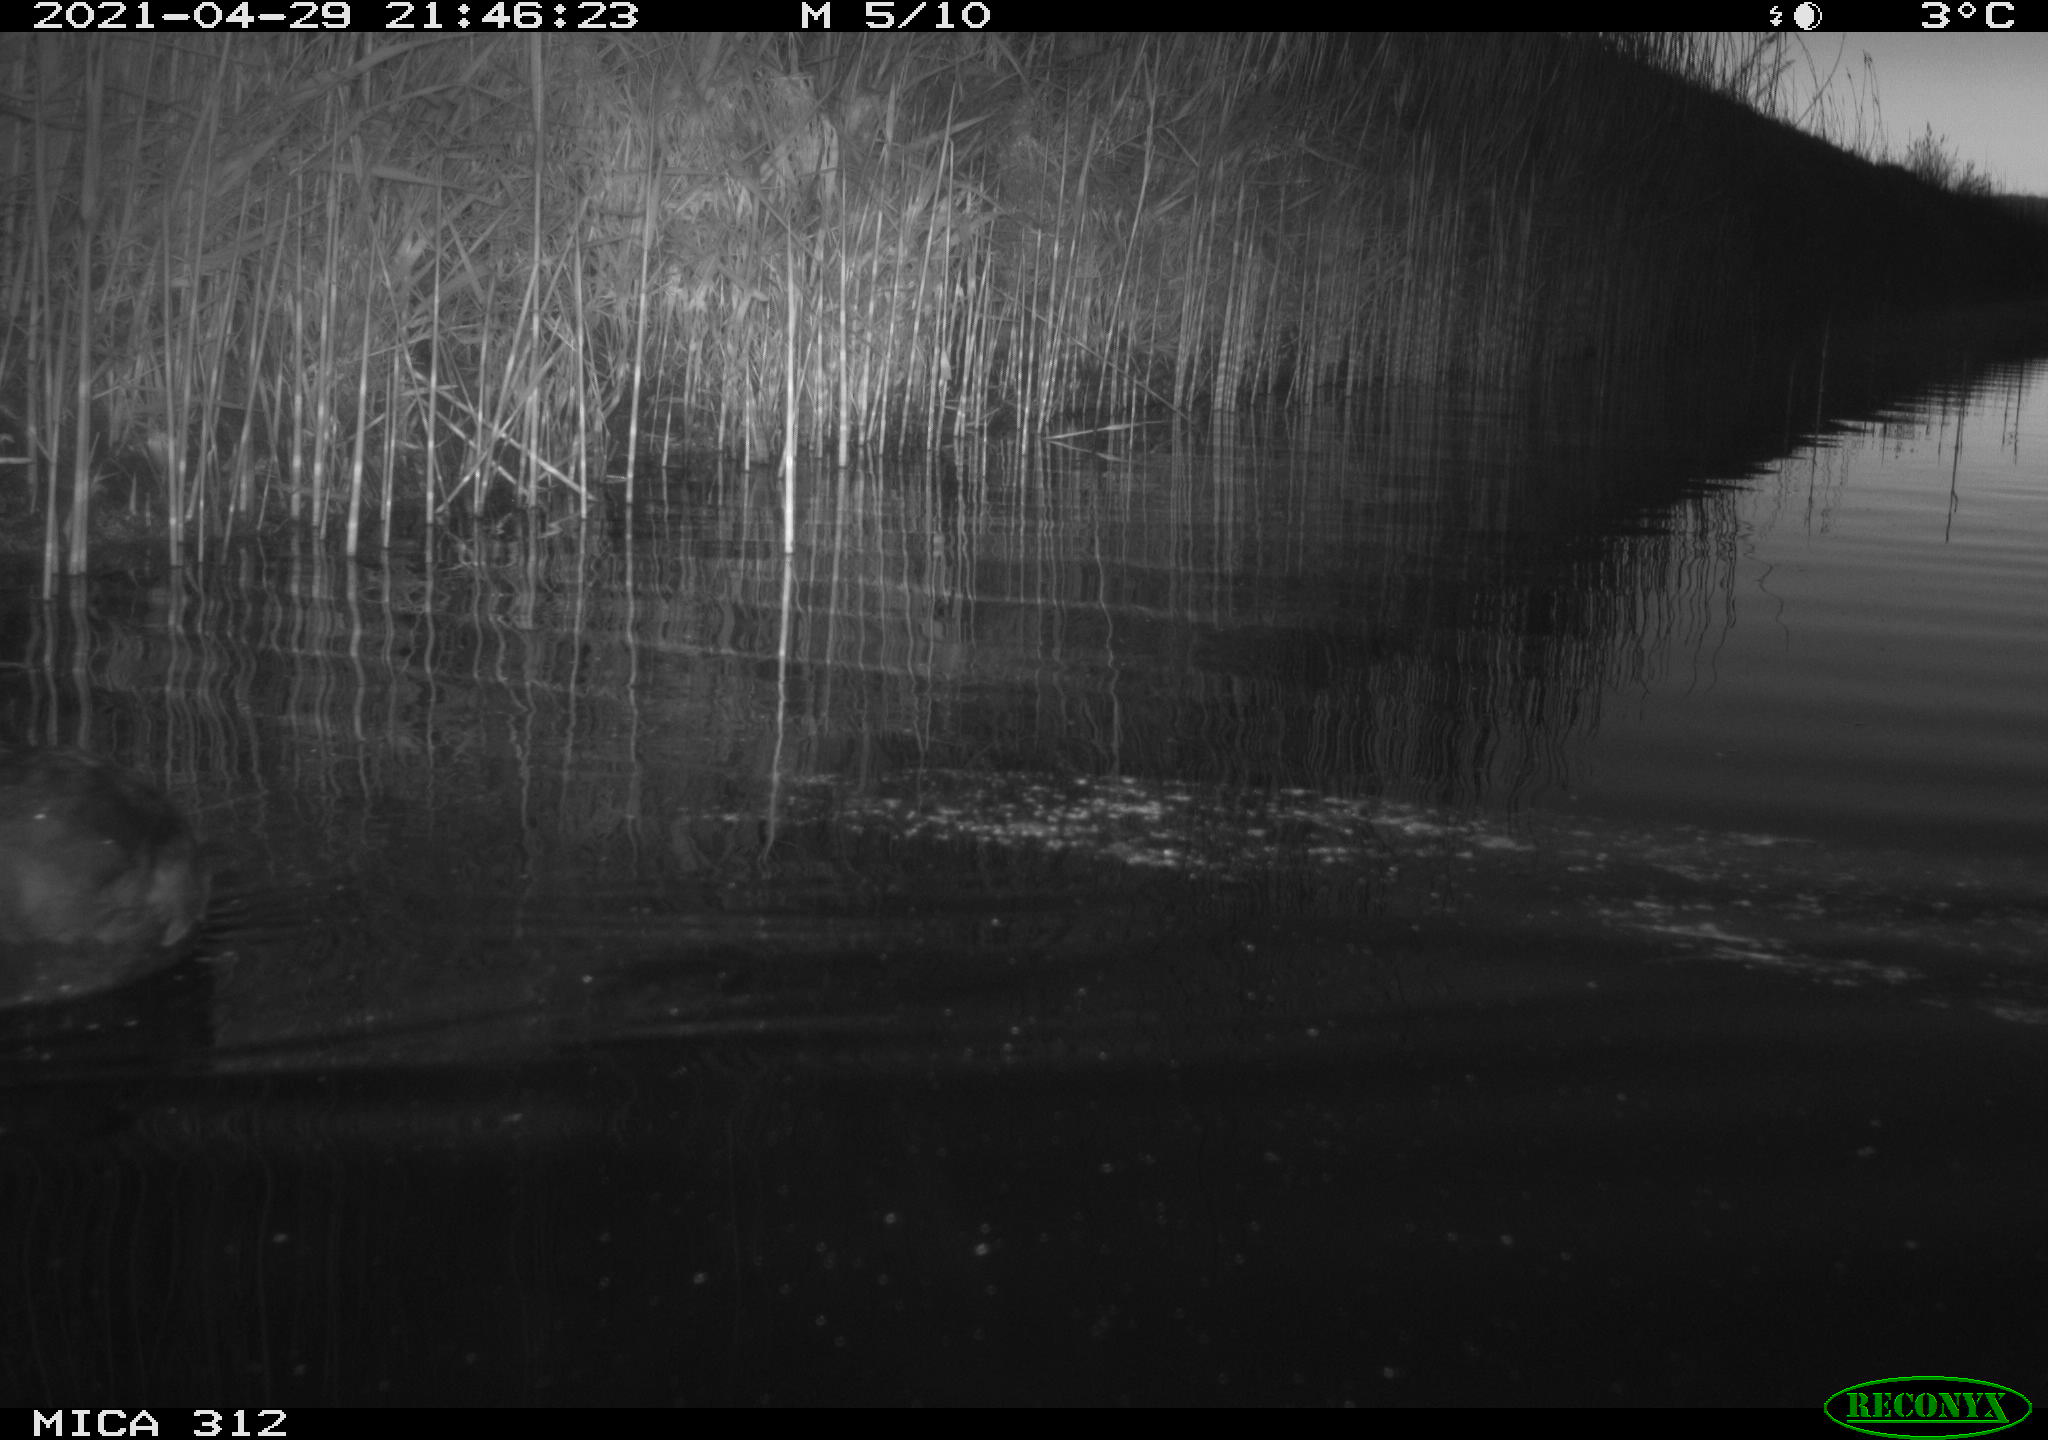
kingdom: Animalia
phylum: Chordata
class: Aves
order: Gruiformes
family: Rallidae
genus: Fulica
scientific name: Fulica atra
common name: Eurasian coot
